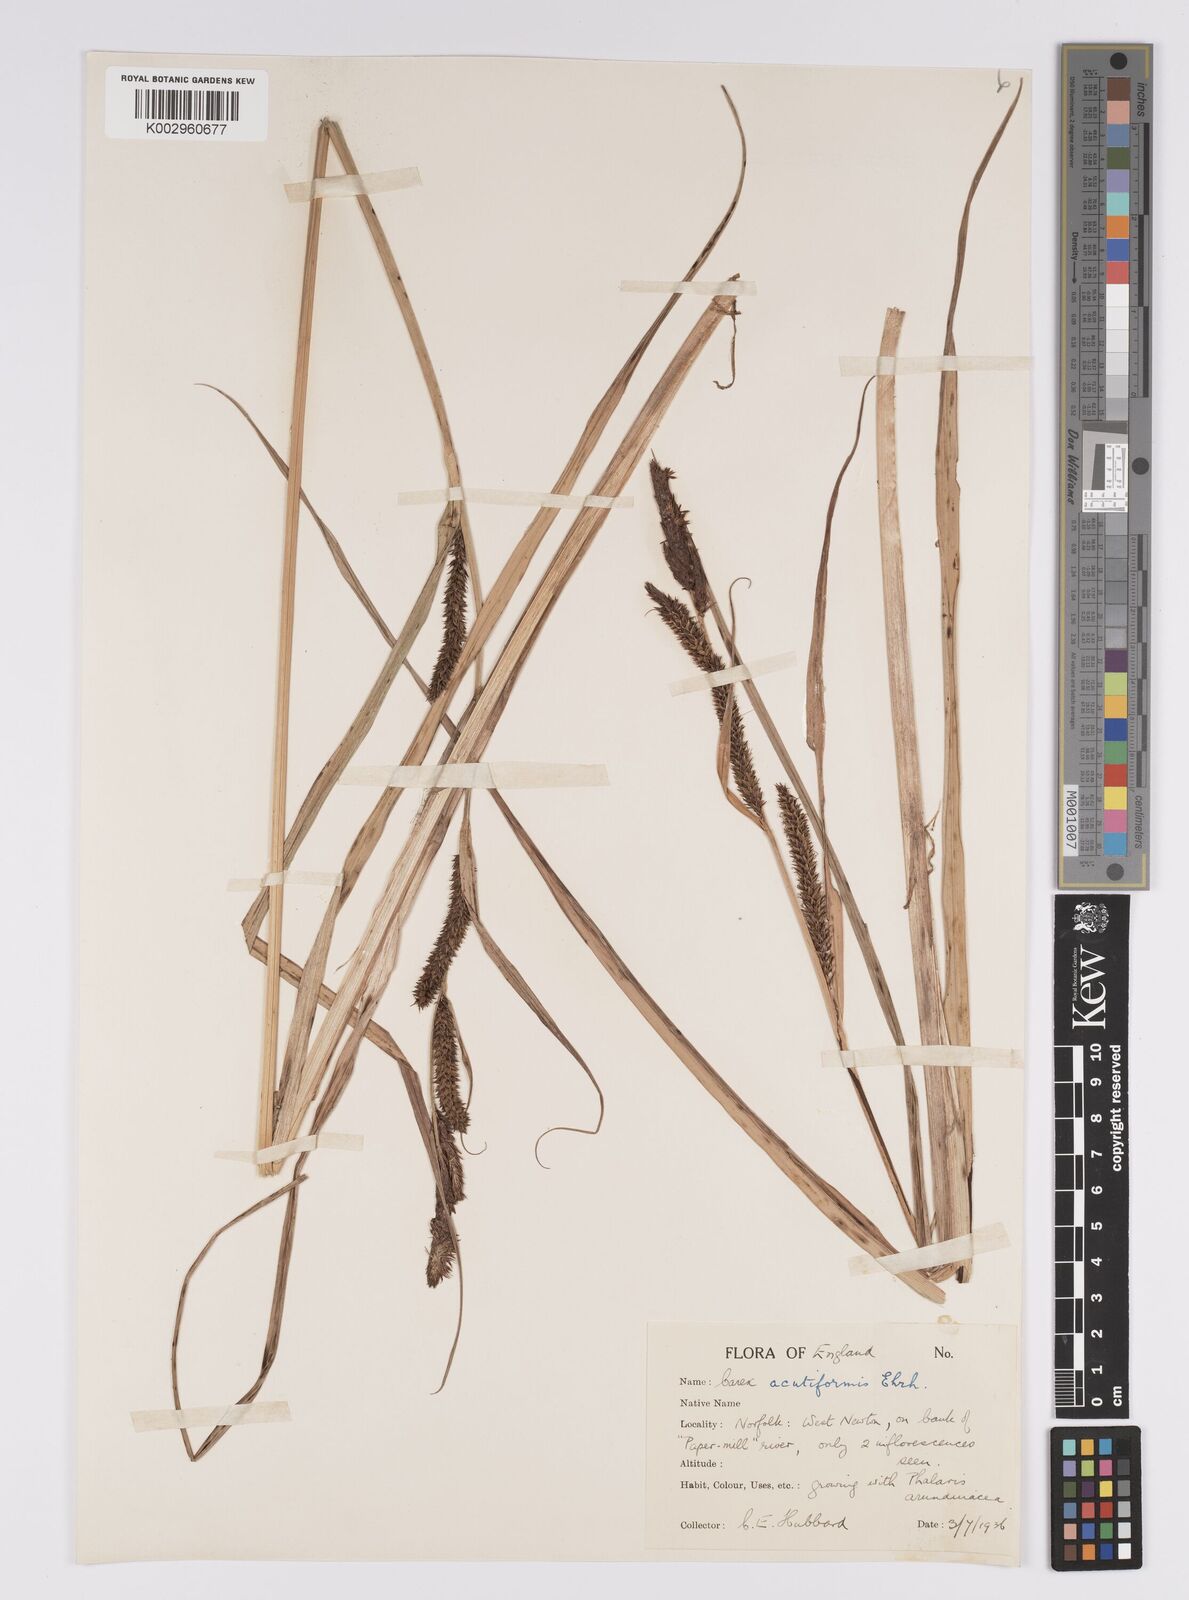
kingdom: Plantae
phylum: Tracheophyta
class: Liliopsida
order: Poales
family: Cyperaceae
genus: Carex
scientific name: Carex acutiformis
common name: Lesser pond-sedge
